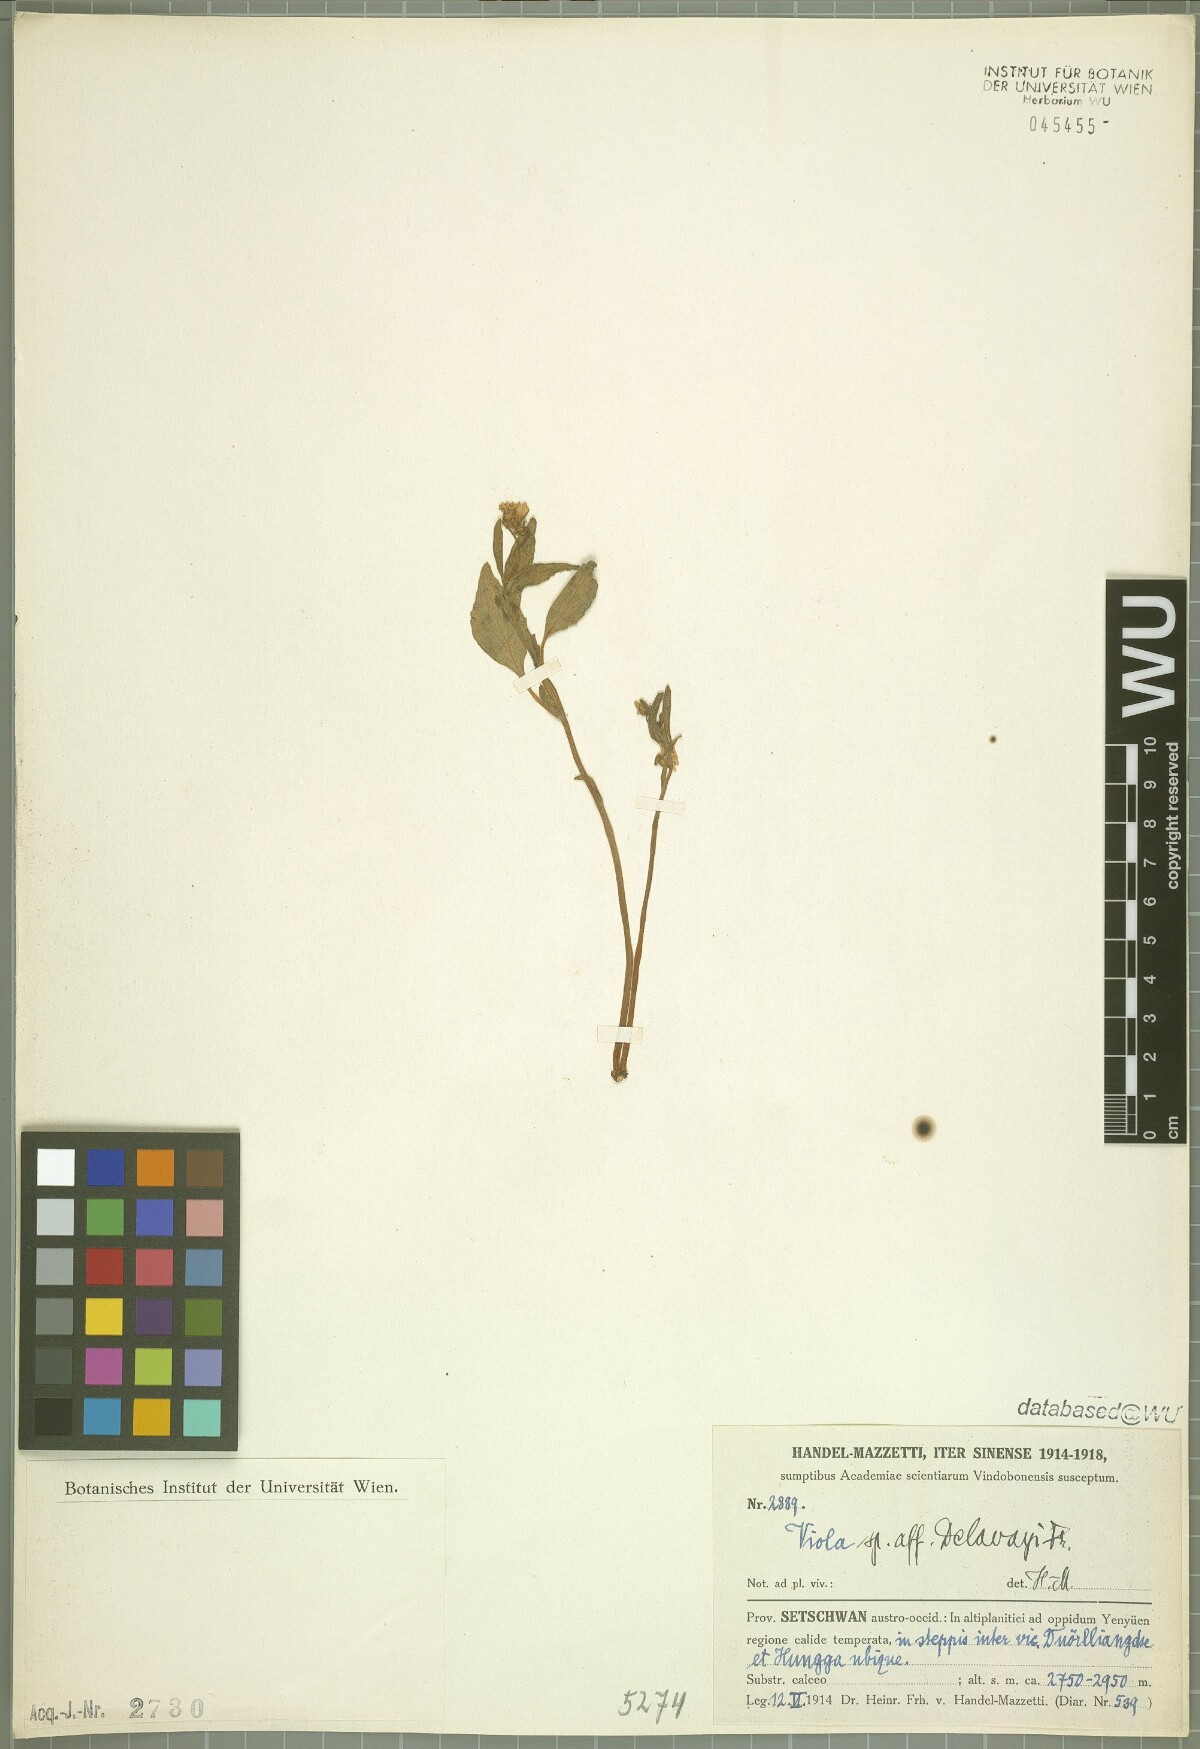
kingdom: Plantae
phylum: Tracheophyta
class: Magnoliopsida
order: Malpighiales
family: Violaceae
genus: Viola
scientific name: Viola delavayi
